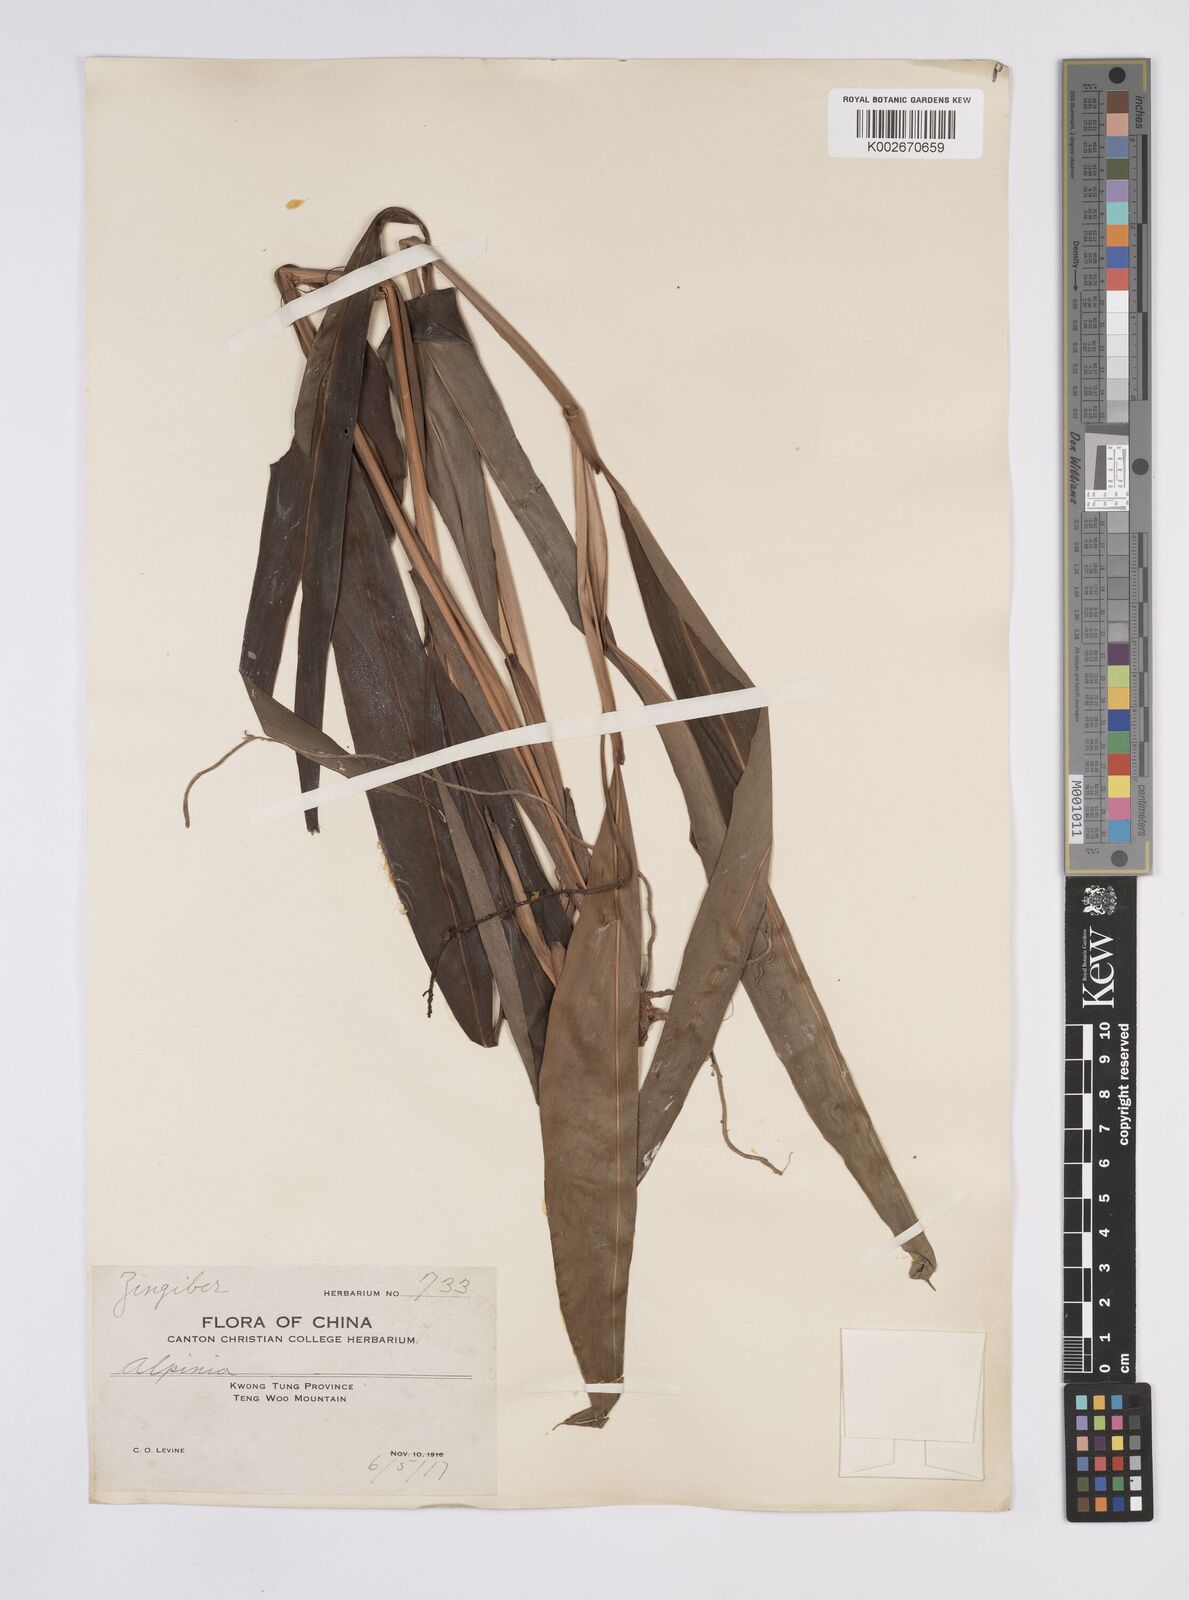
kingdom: Plantae
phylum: Tracheophyta
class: Liliopsida
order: Zingiberales
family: Zingiberaceae
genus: Alpinia
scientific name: Alpinia
